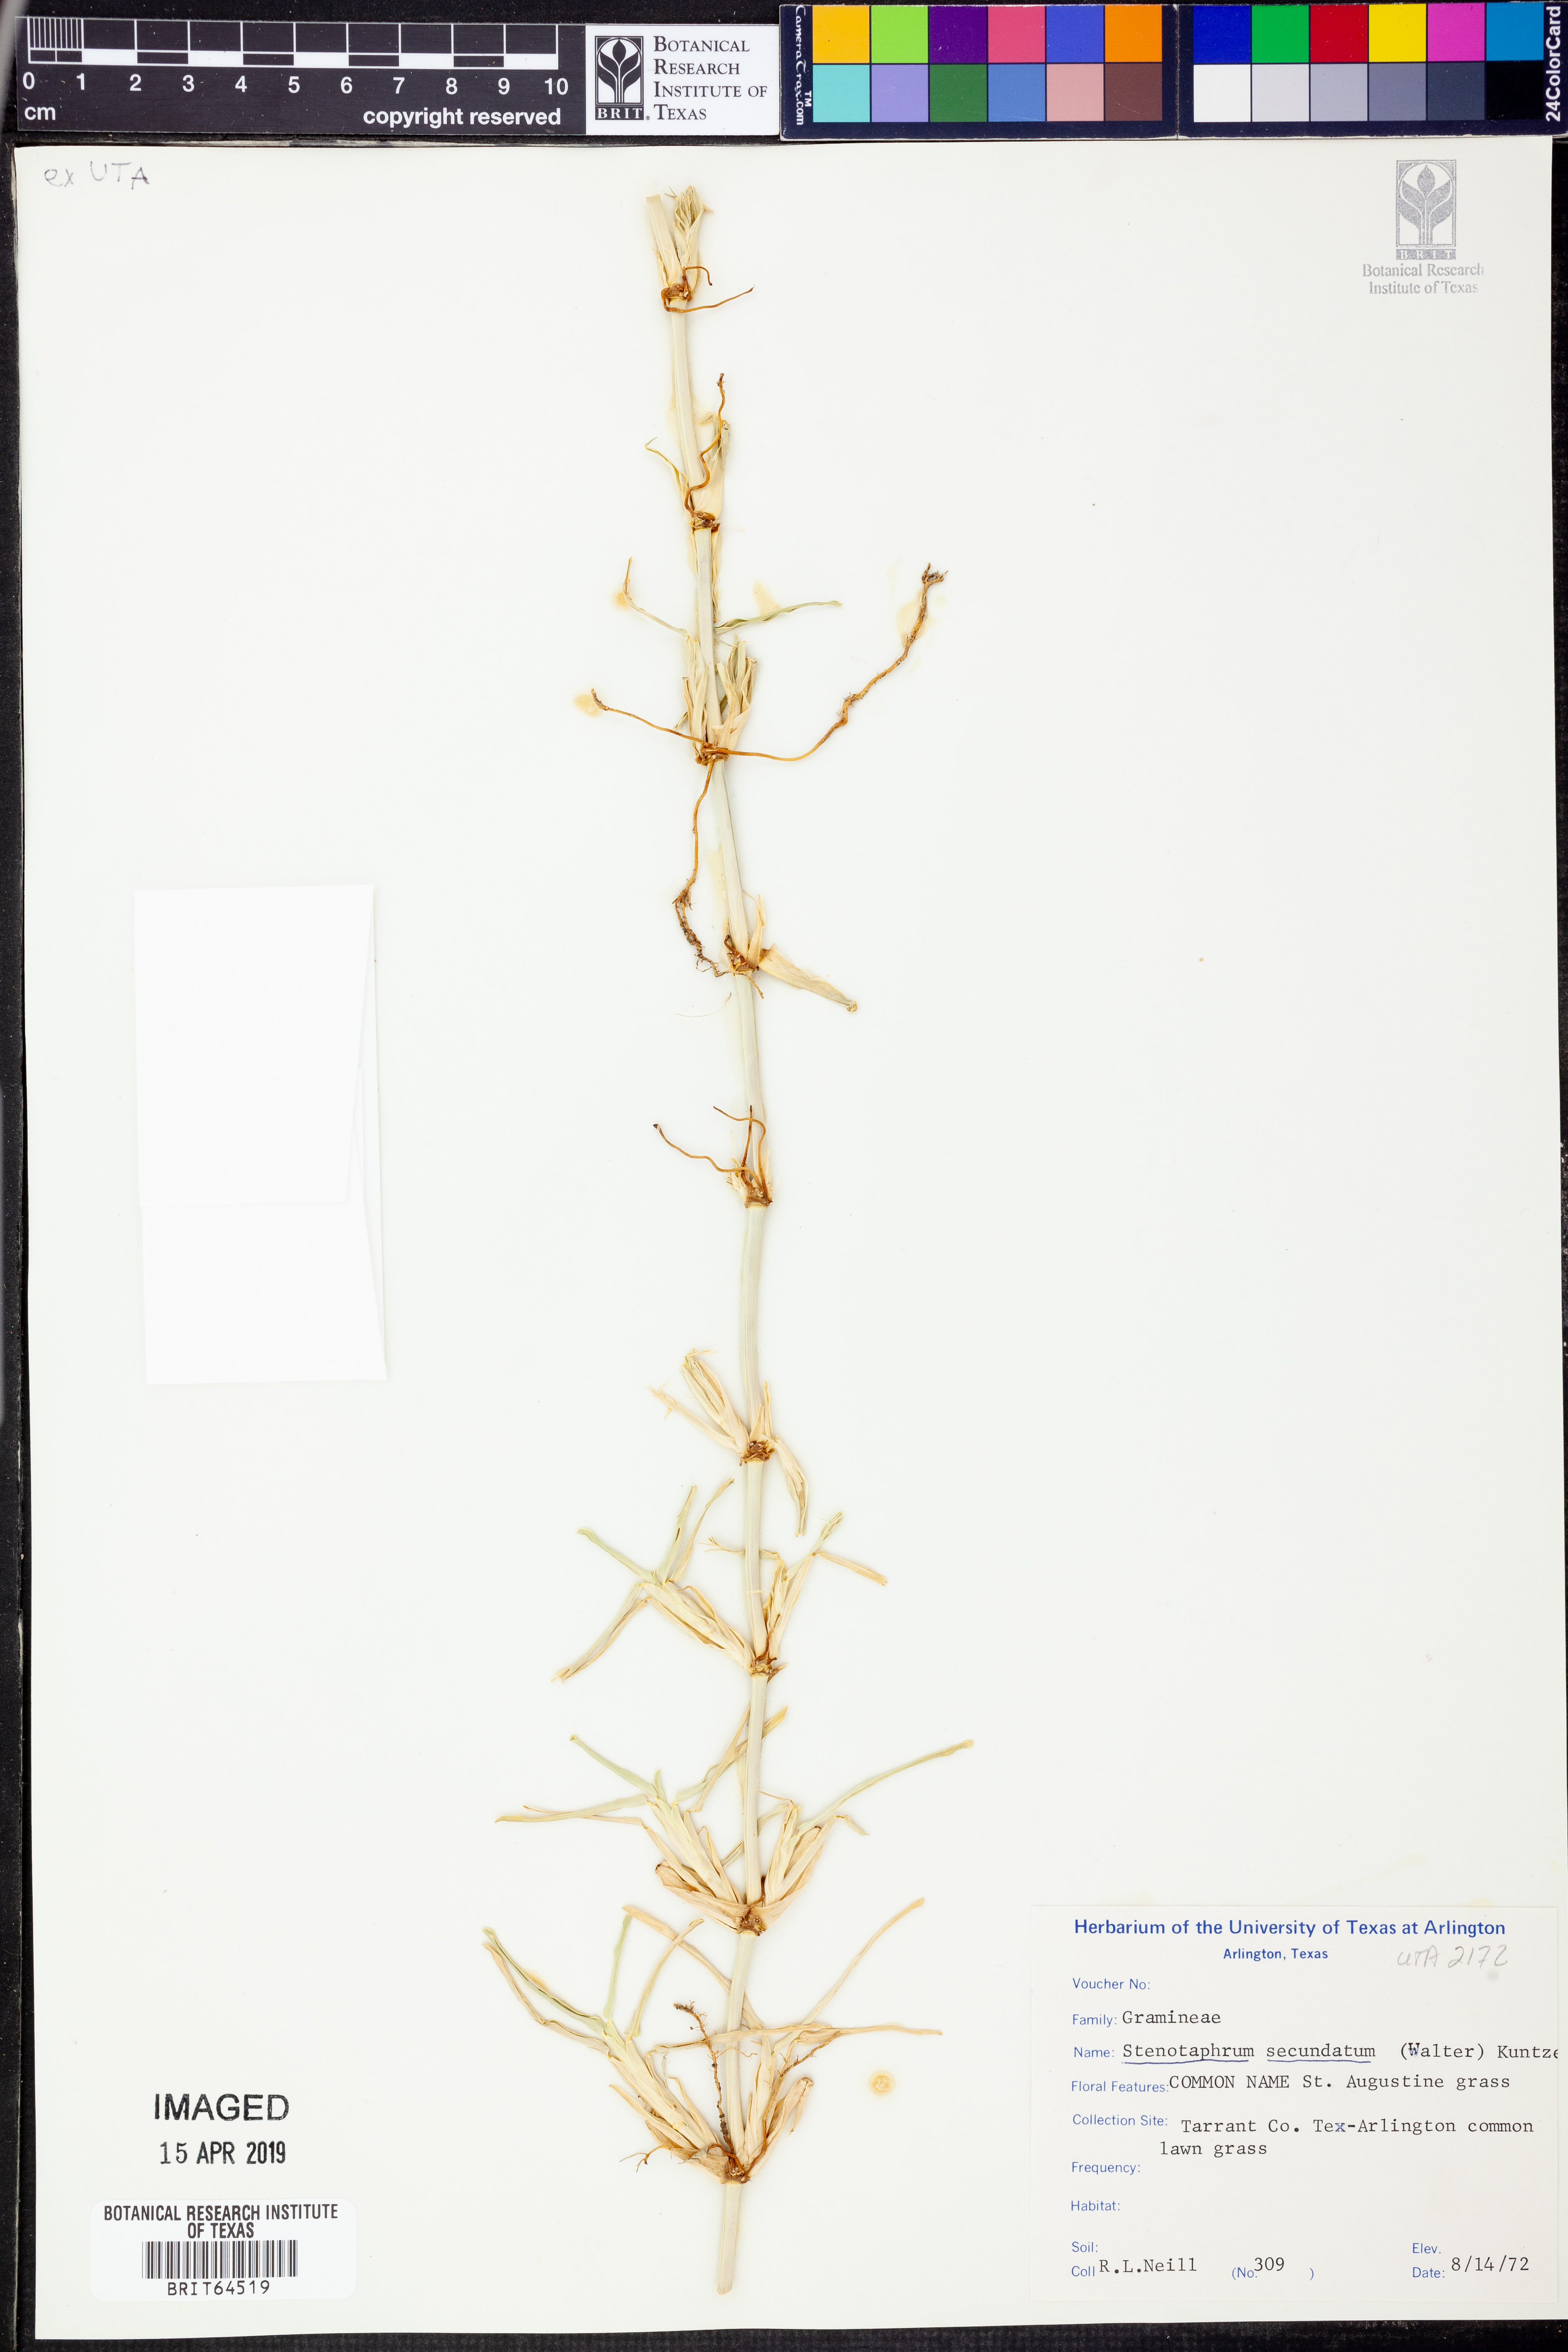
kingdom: Plantae
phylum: Tracheophyta
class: Liliopsida
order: Poales
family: Poaceae
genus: Stenotaphrum
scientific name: Stenotaphrum secundatum
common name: St. augustine grass
